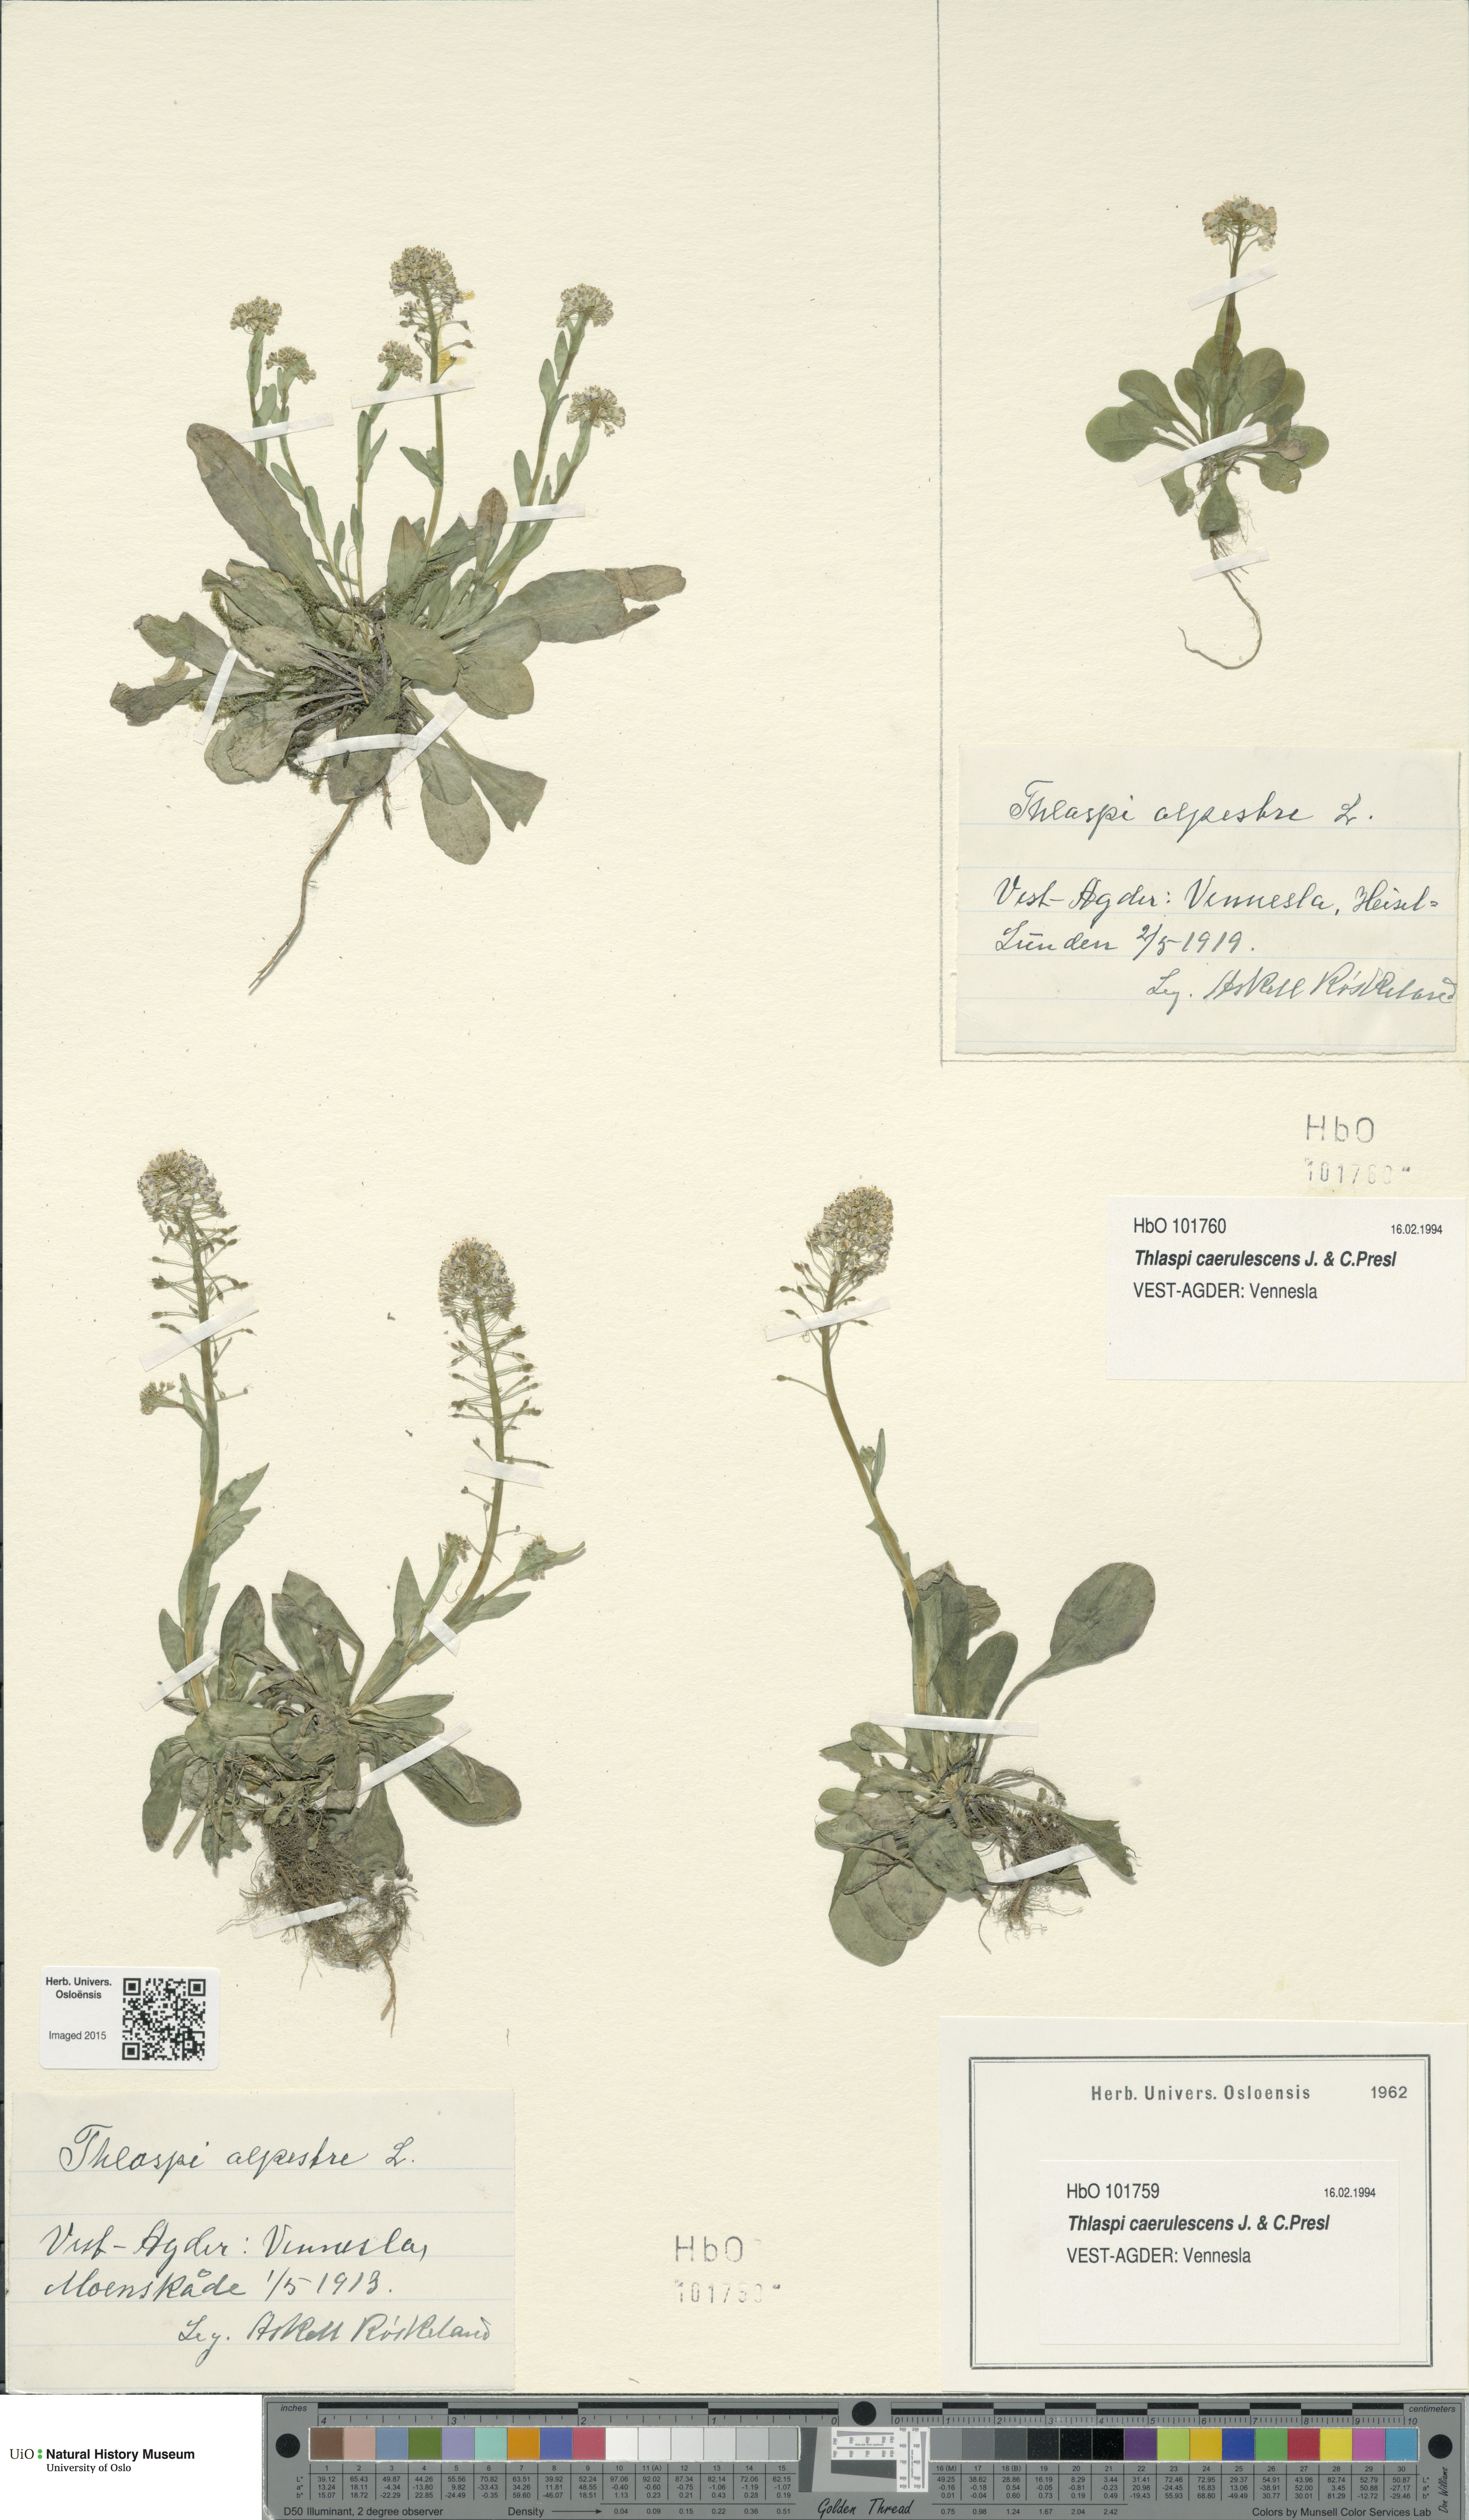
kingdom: Plantae
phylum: Tracheophyta
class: Magnoliopsida
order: Brassicales
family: Brassicaceae
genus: Noccaea
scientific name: Noccaea caerulescens
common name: Alpine pennycress
